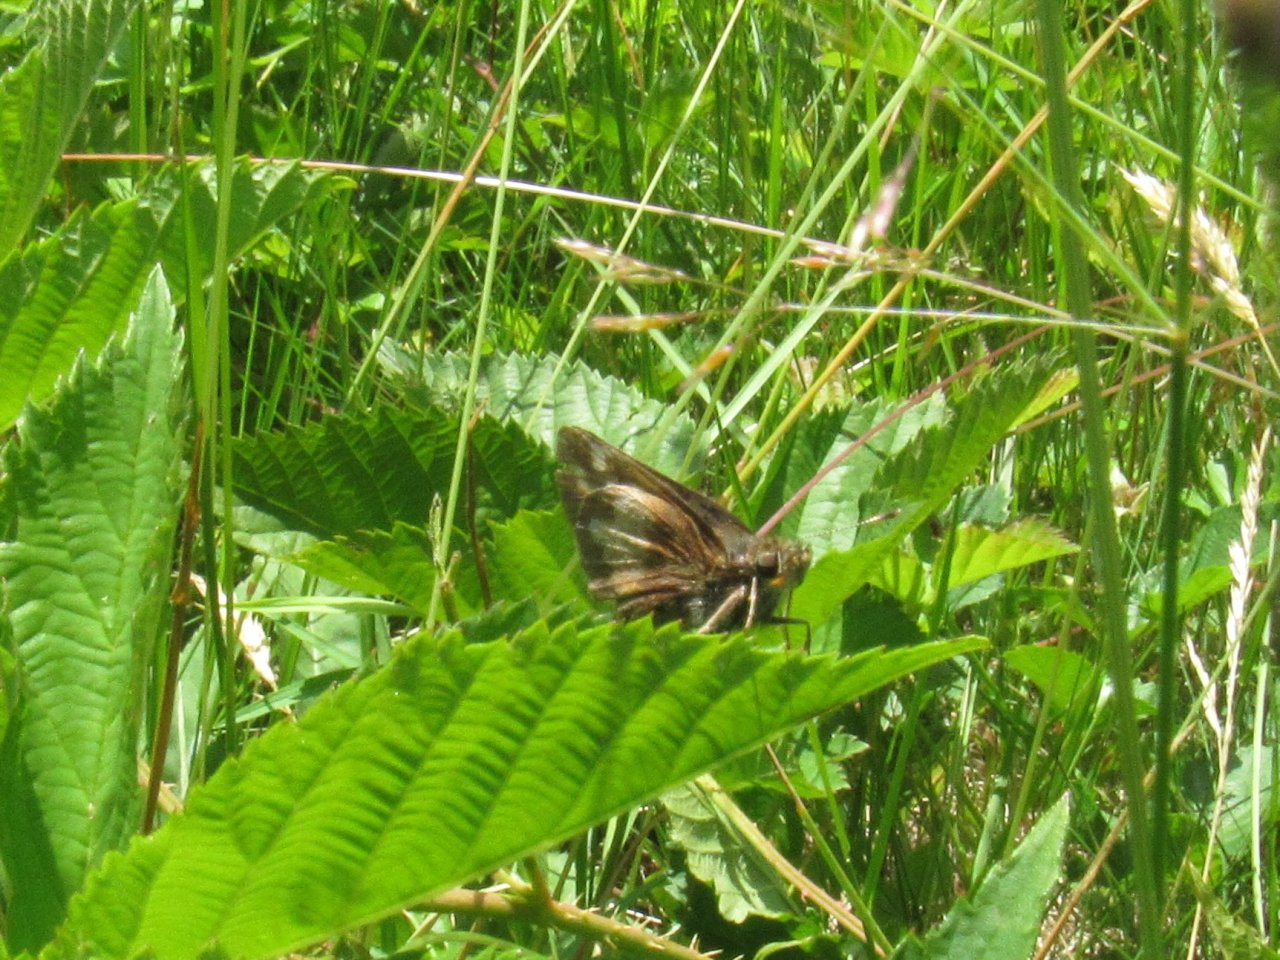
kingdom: Animalia
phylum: Arthropoda
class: Insecta
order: Lepidoptera
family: Hesperiidae
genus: Lon
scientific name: Lon hobomok
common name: Hobomok Skipper
